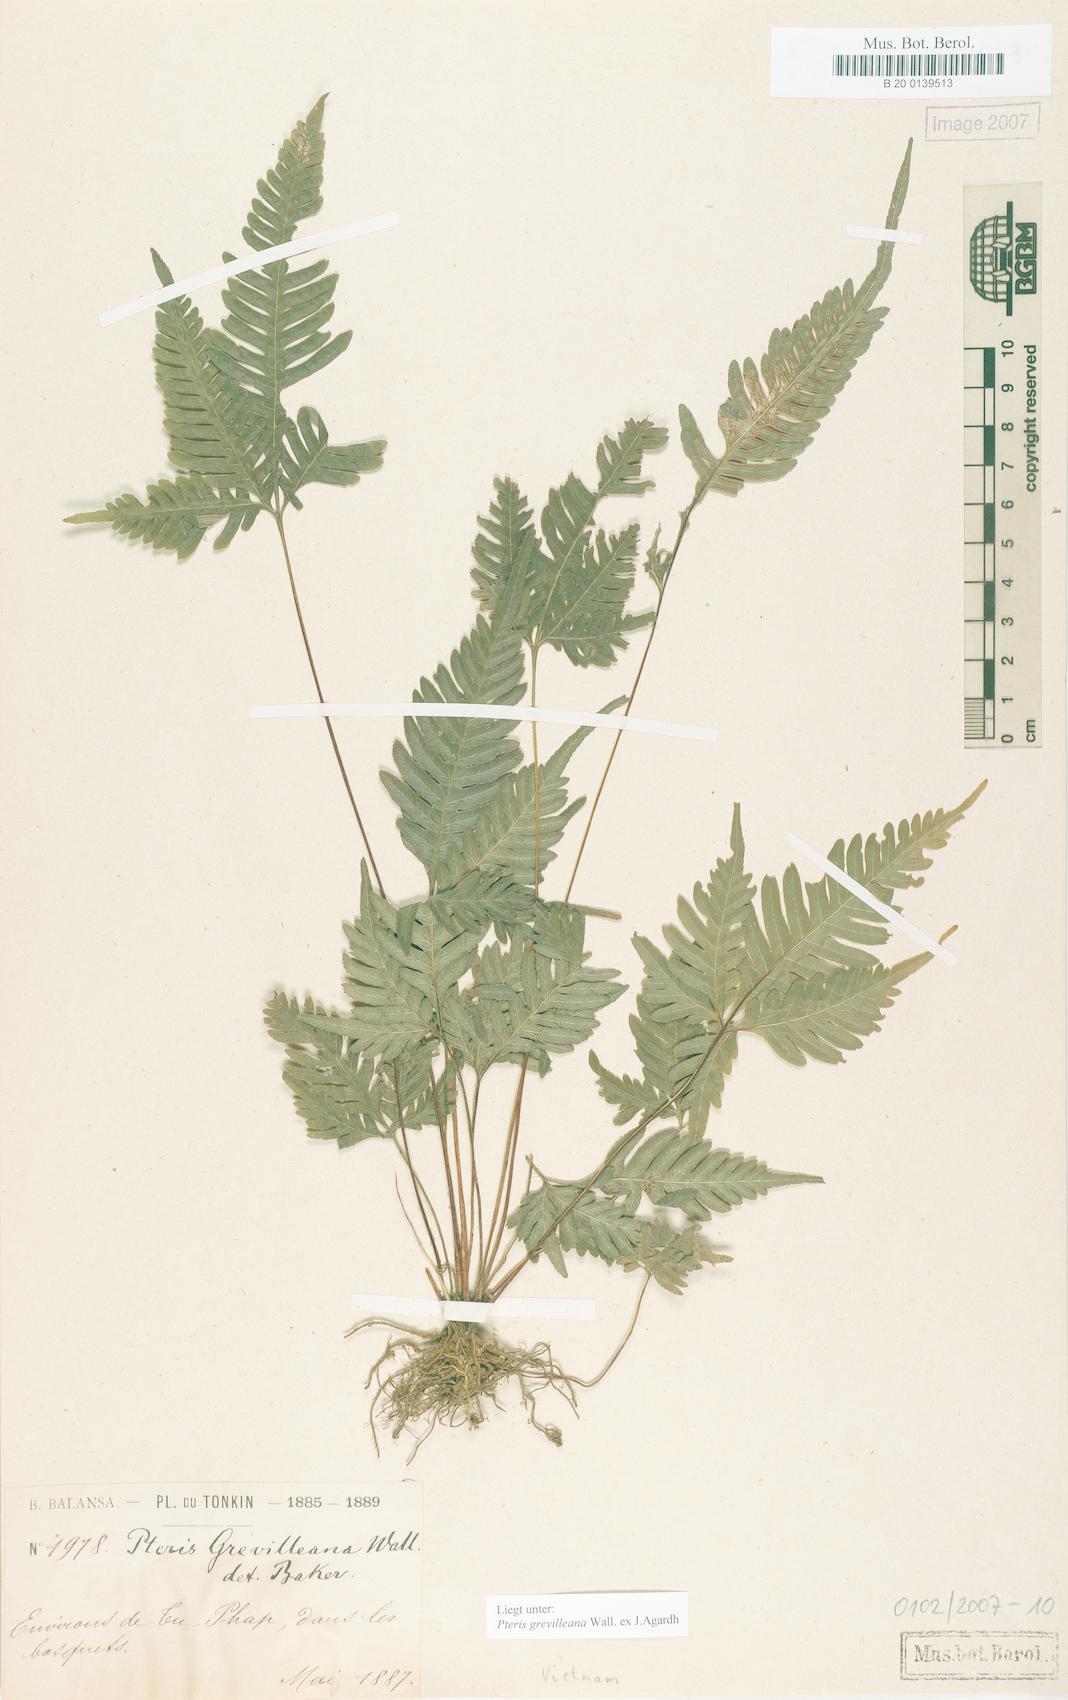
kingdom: Plantae
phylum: Tracheophyta
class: Polypodiopsida
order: Polypodiales
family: Pteridaceae
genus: Pteris
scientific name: Pteris grevilleana
